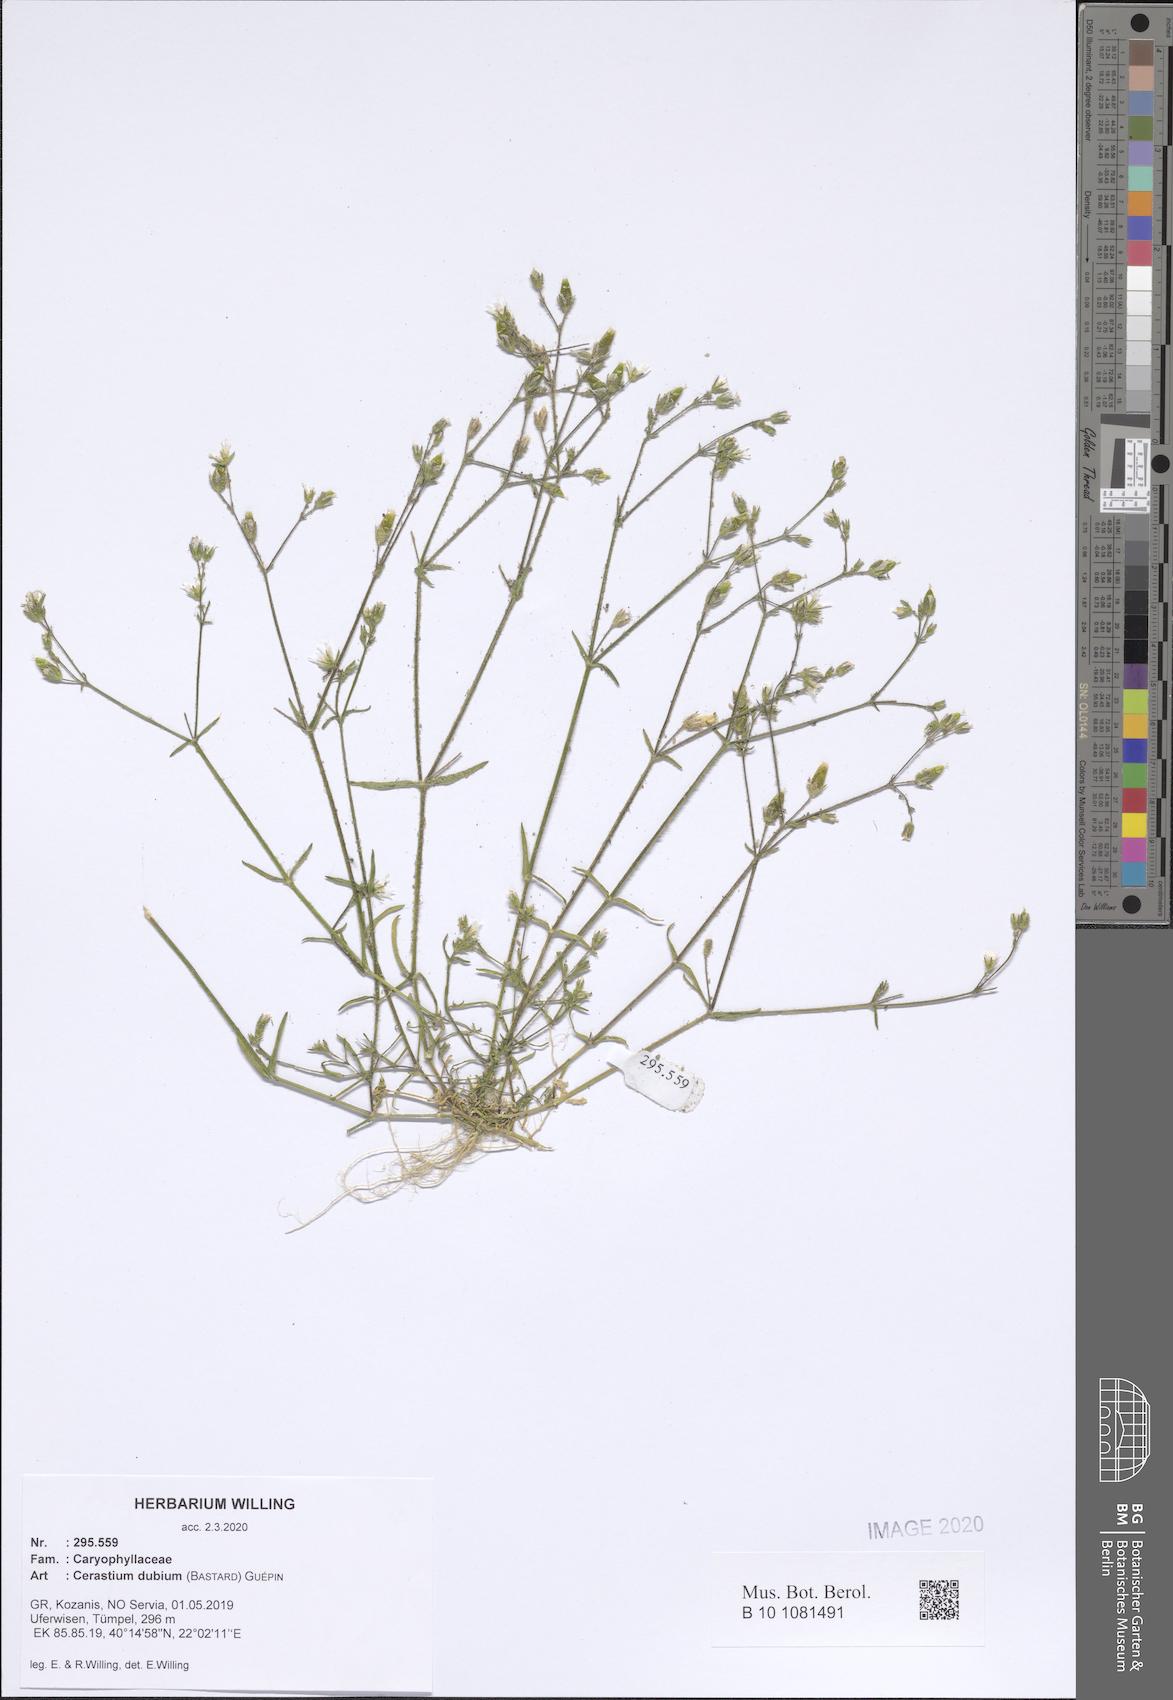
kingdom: Plantae
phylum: Tracheophyta
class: Magnoliopsida
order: Caryophyllales
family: Caryophyllaceae
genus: Dichodon
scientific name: Dichodon viscidum
